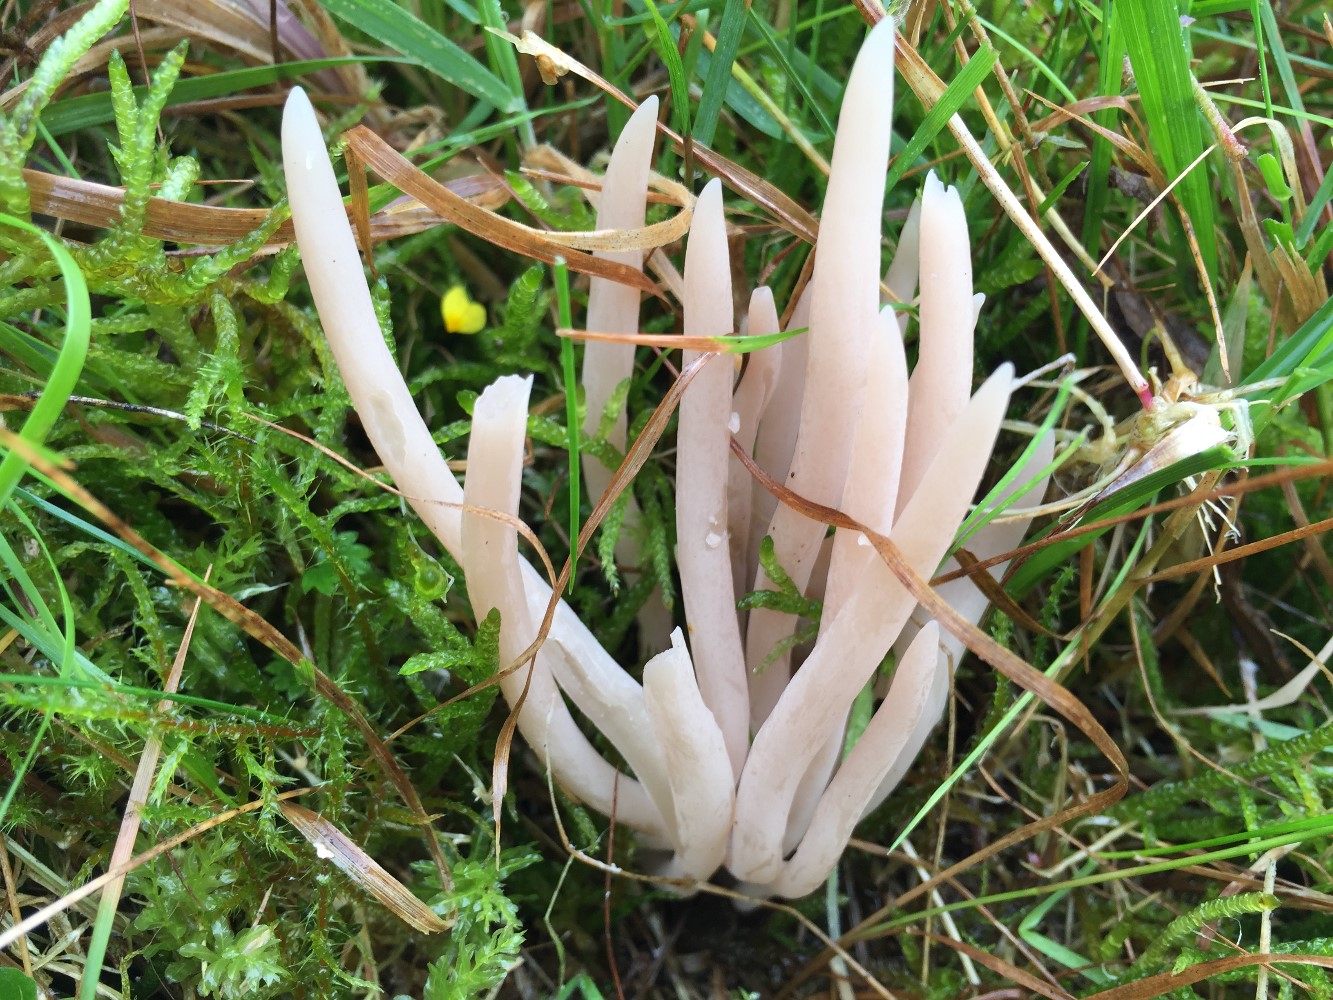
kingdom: Fungi
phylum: Basidiomycota
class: Agaricomycetes
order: Agaricales
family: Clavariaceae
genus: Clavaria
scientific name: Clavaria fumosa
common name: røggrå køllesvamp
